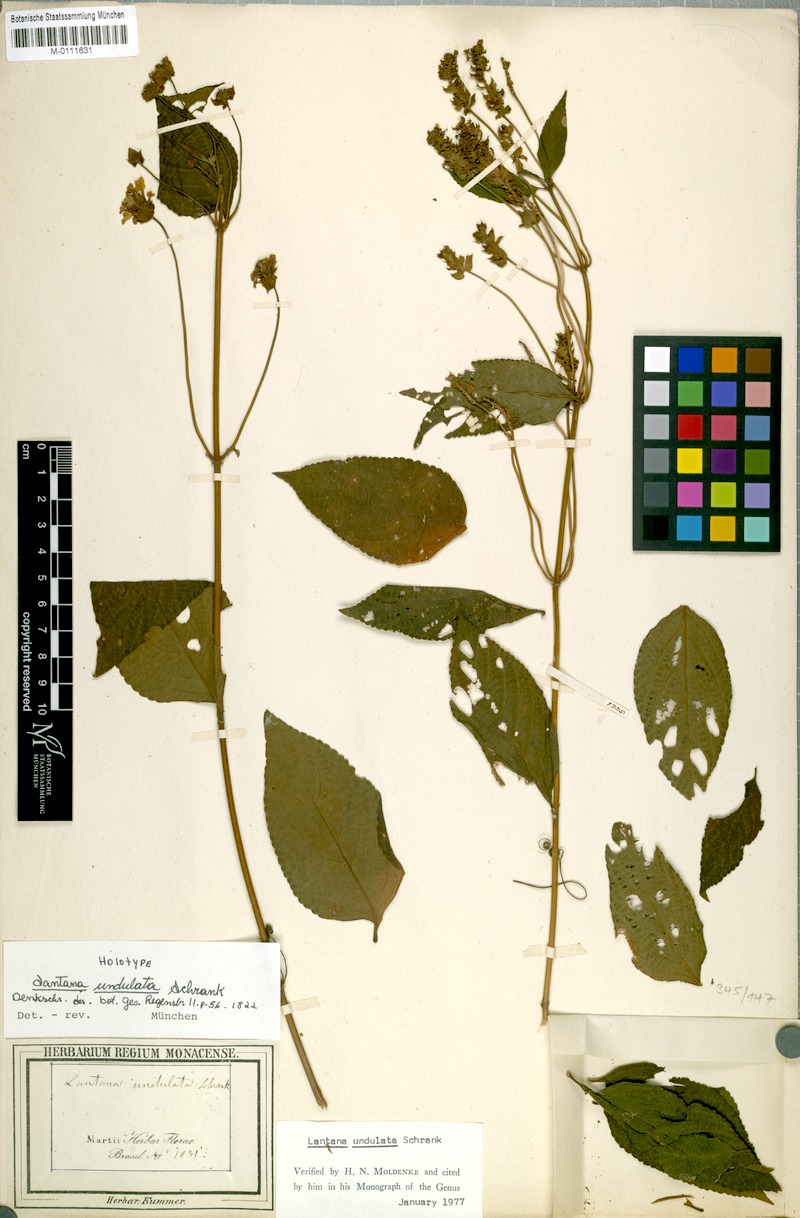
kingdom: Plantae
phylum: Tracheophyta
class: Magnoliopsida
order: Lamiales
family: Verbenaceae
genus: Lantana
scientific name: Lantana undulata
